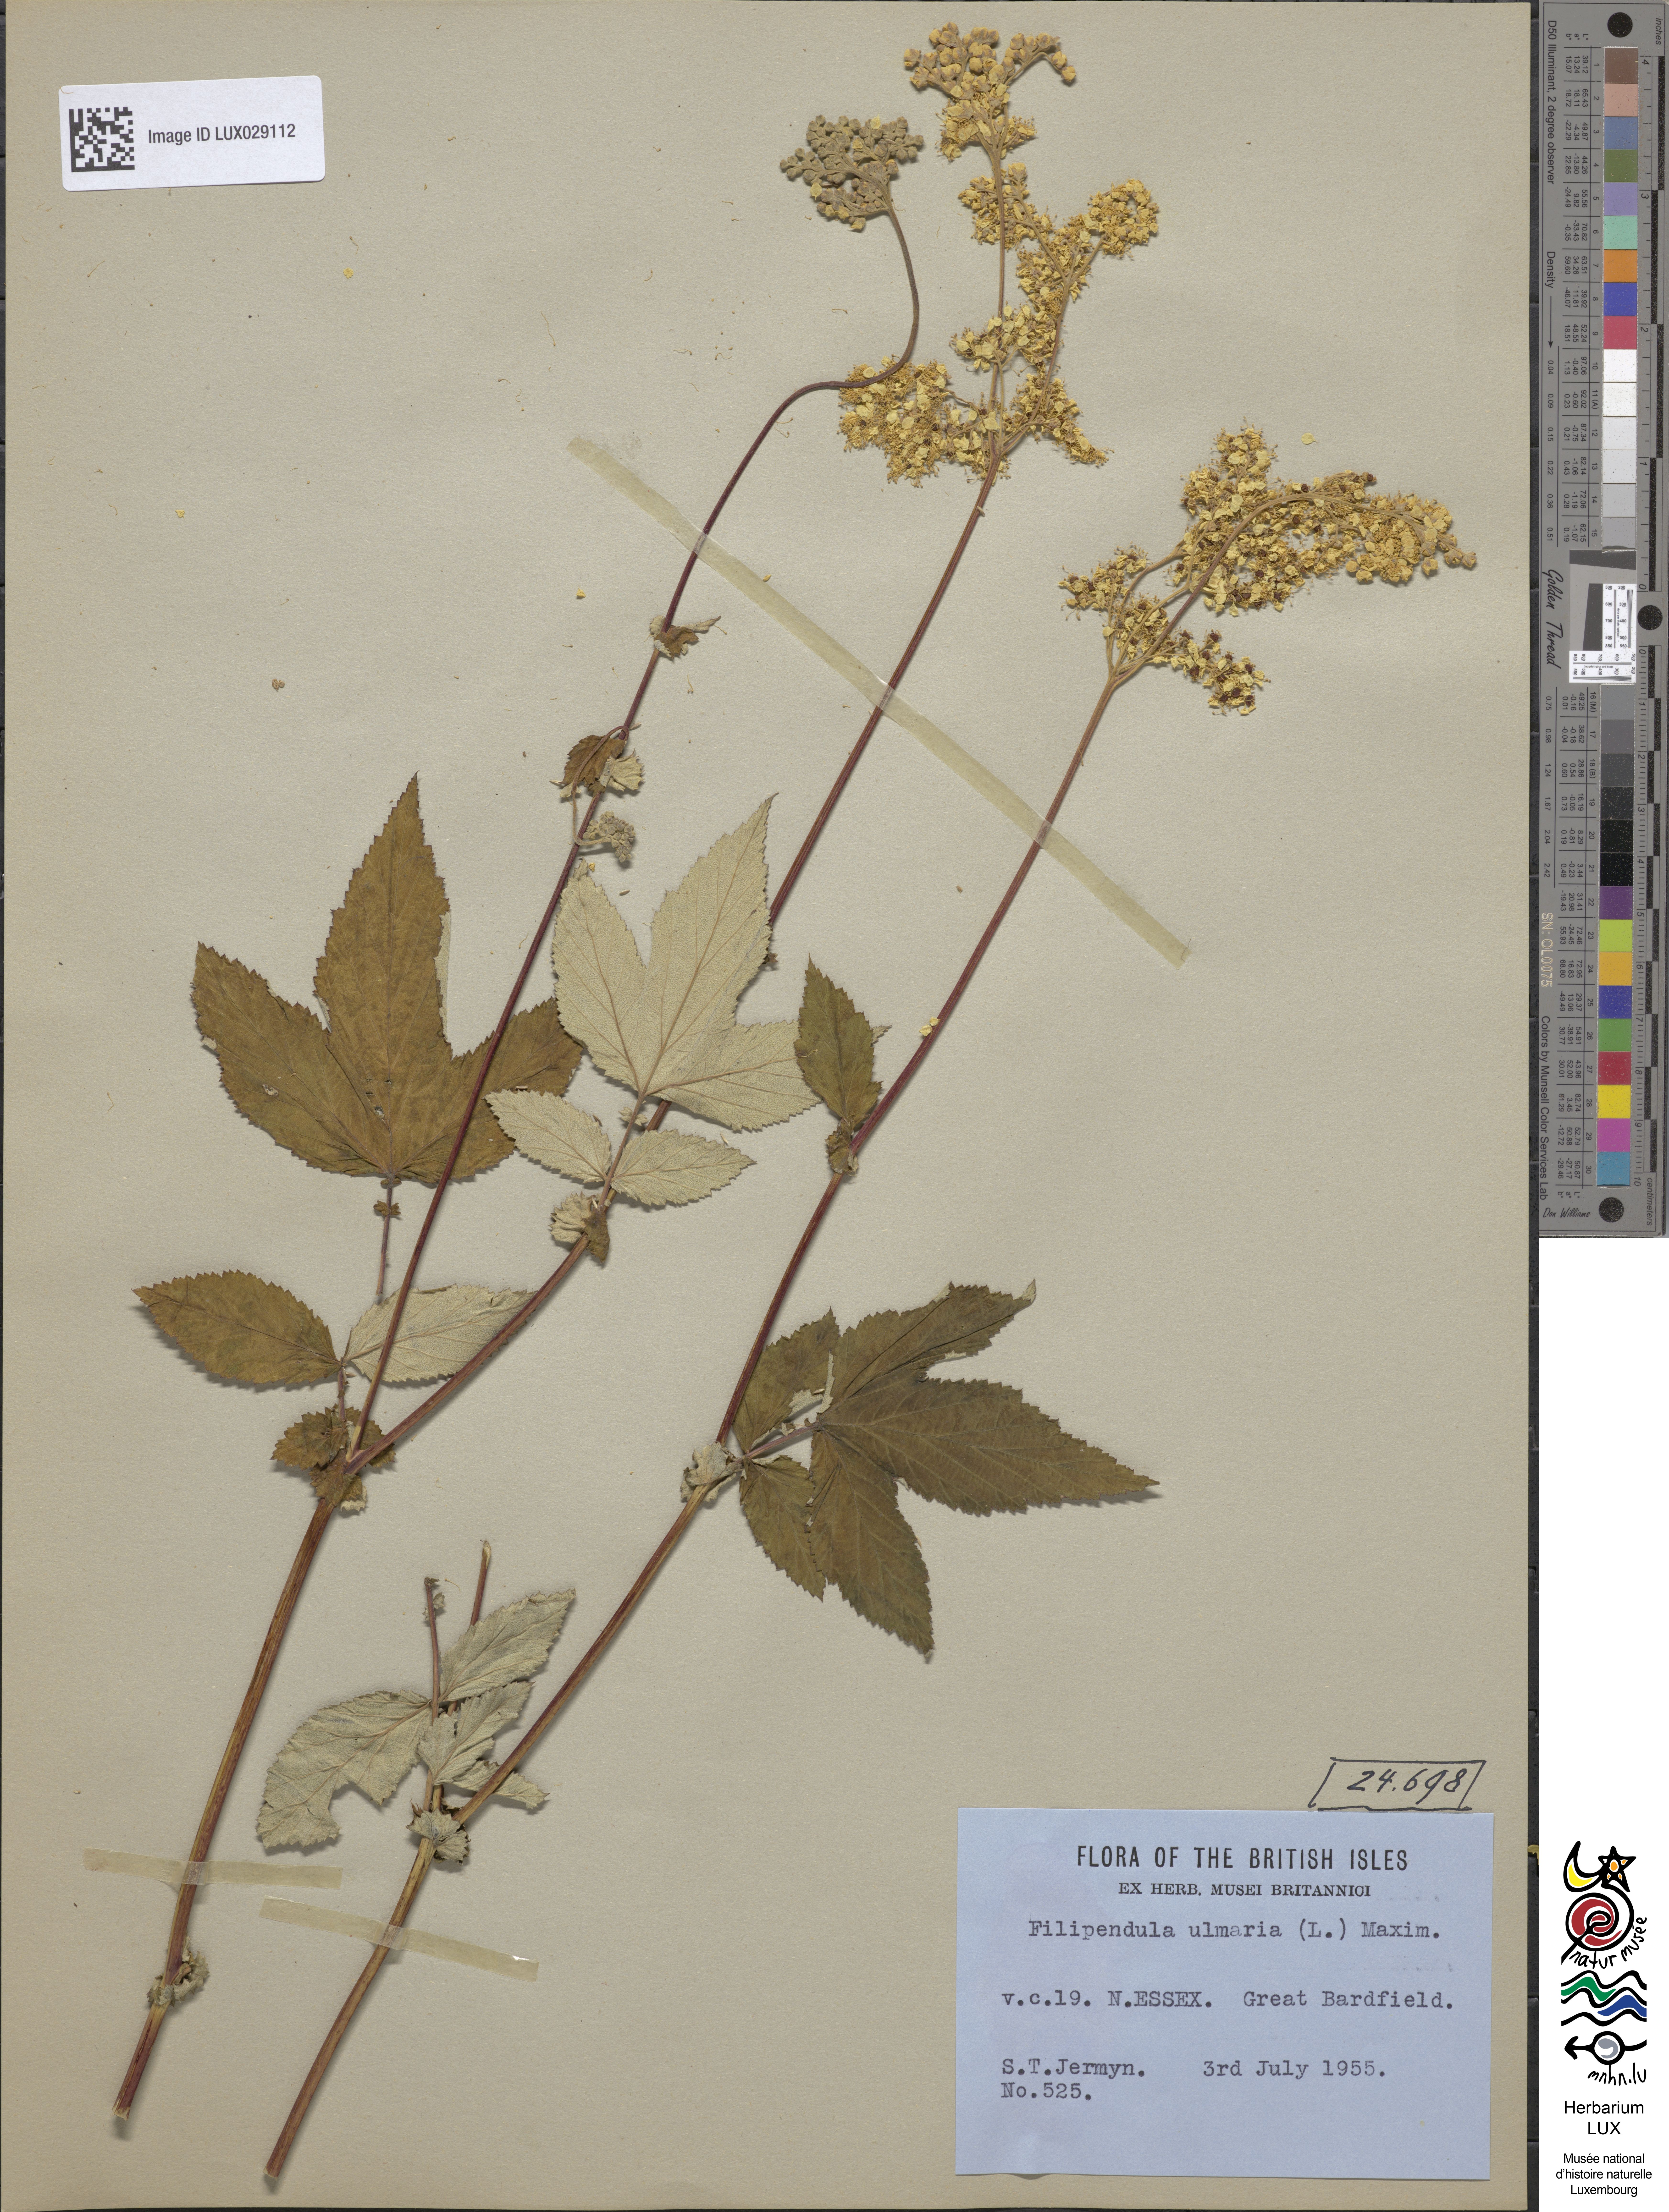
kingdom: Plantae
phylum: Tracheophyta
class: Magnoliopsida
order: Rosales
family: Rosaceae
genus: Filipendula
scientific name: Filipendula ulmaria
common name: Meadowsweet
